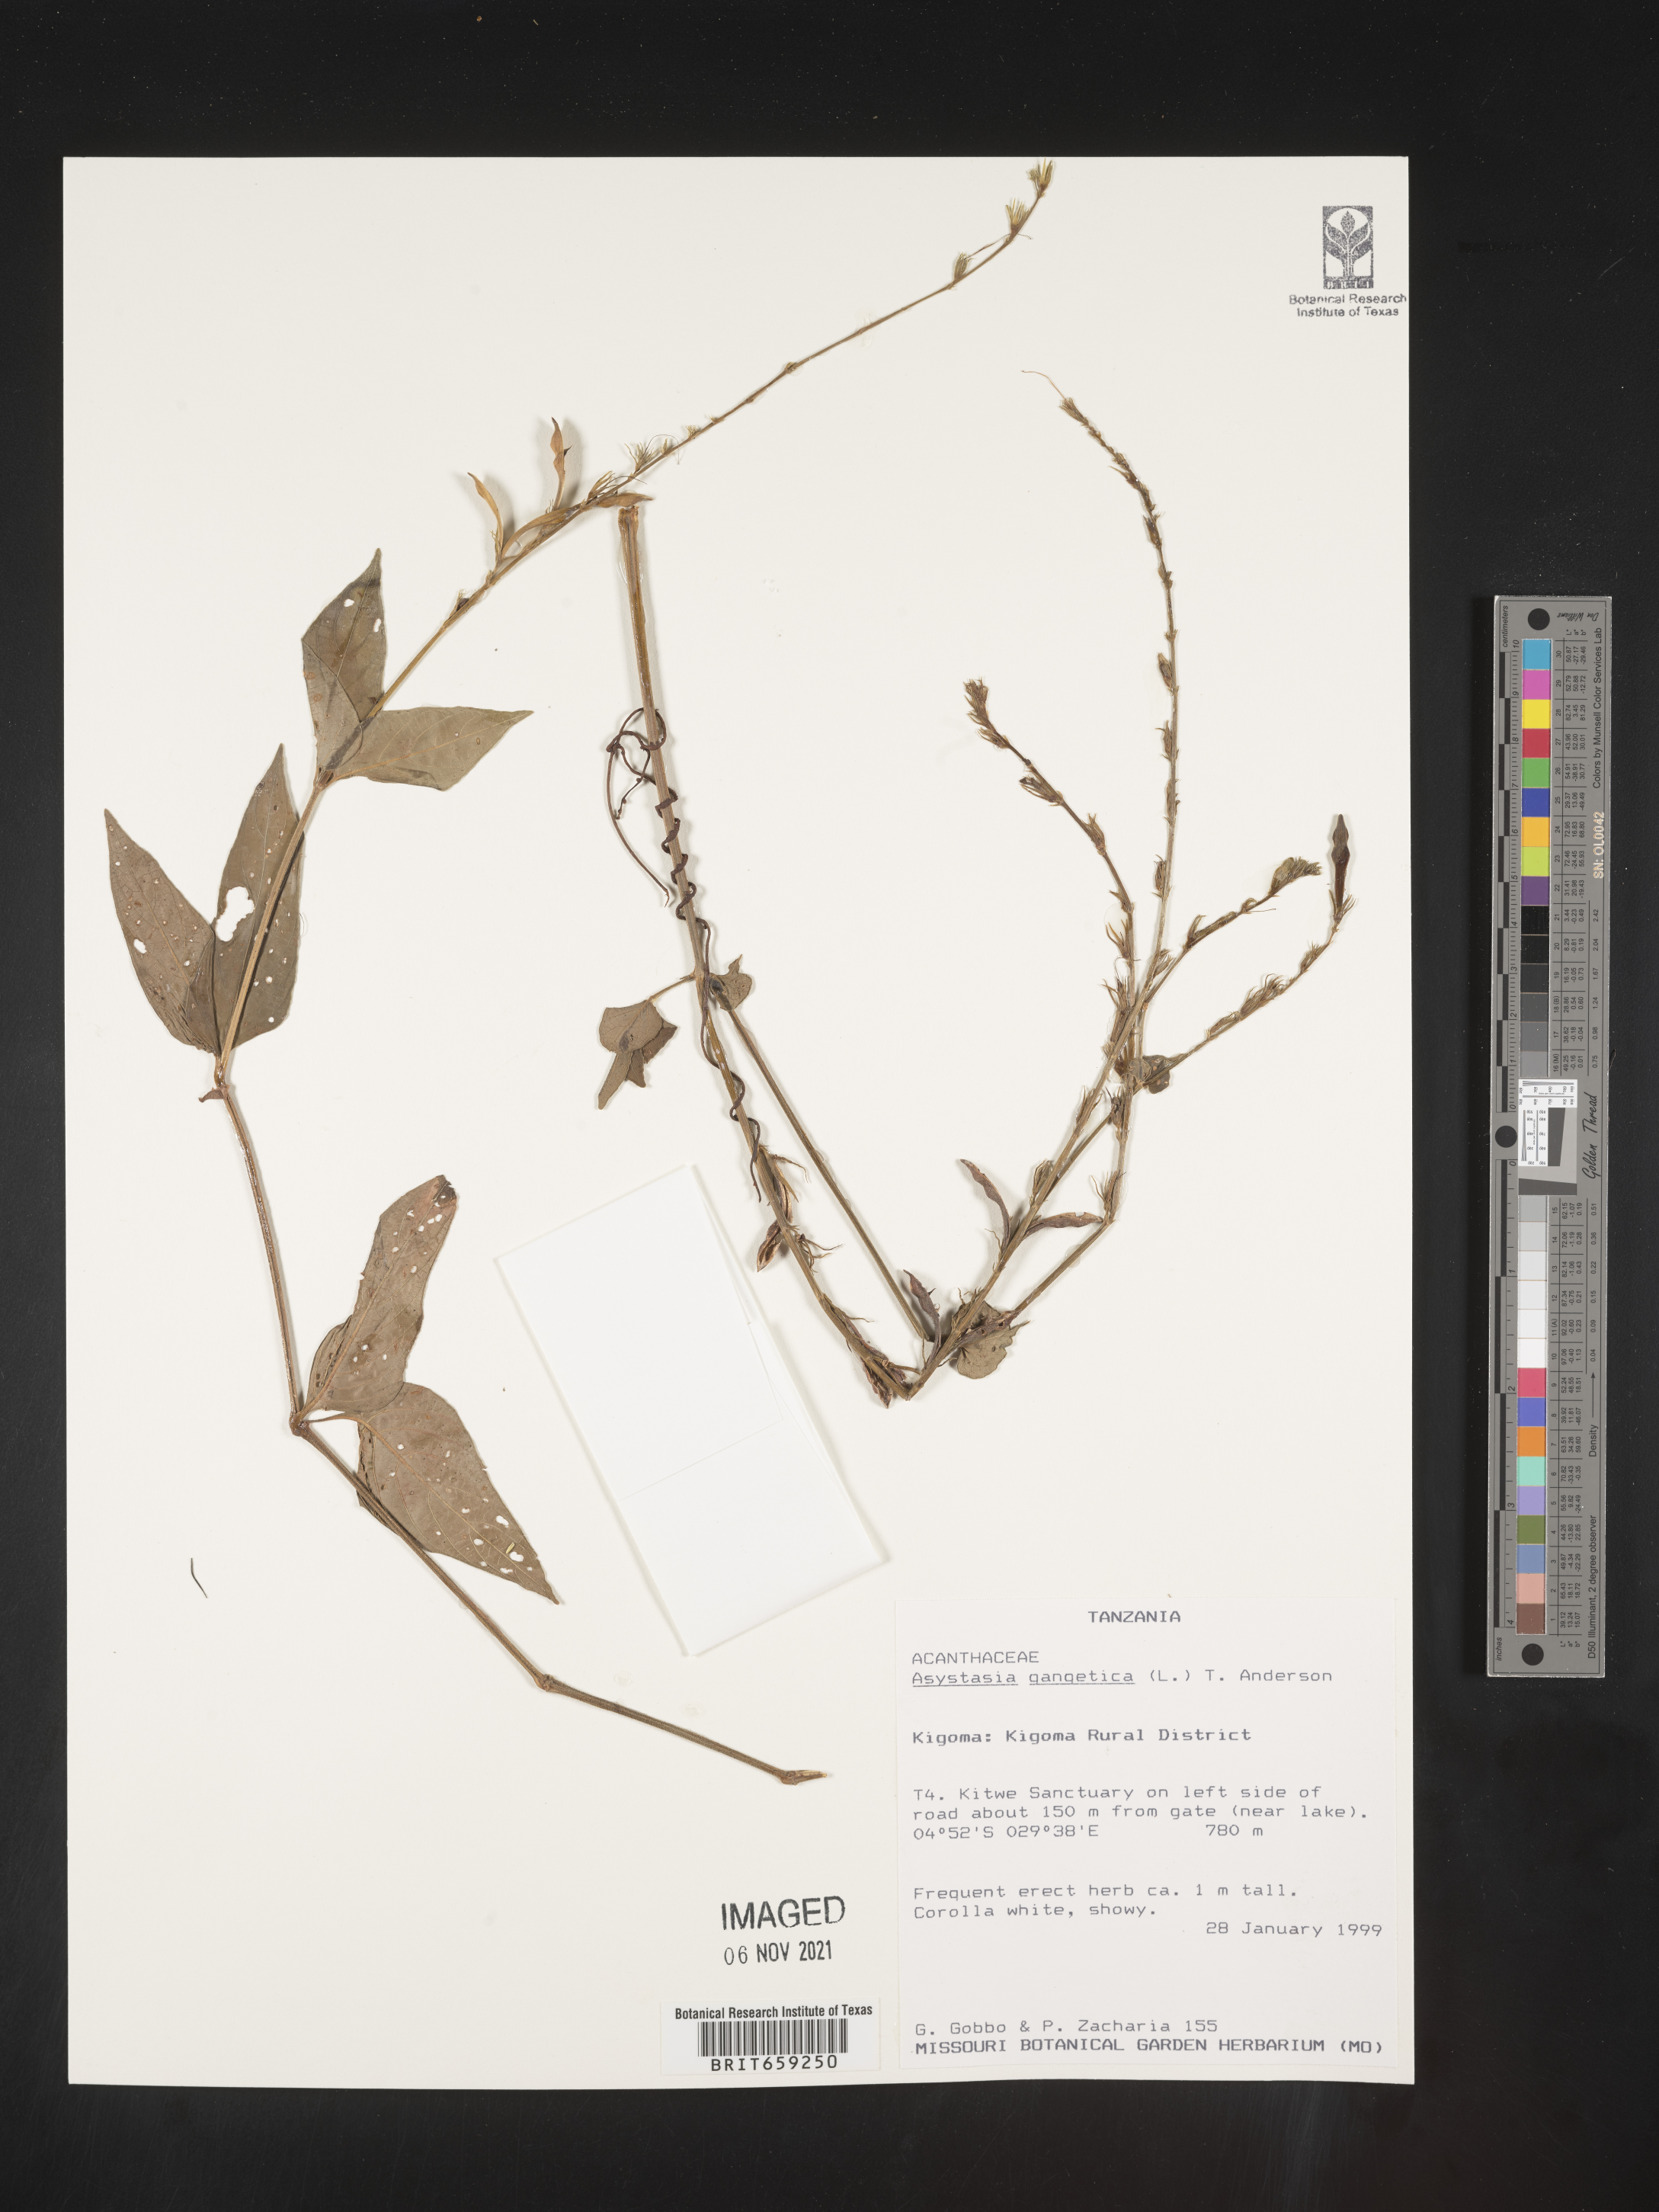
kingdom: Plantae
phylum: Tracheophyta
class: Magnoliopsida
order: Lamiales
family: Acanthaceae
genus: Asystasia
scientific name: Asystasia gangetica
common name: Chinese violet
